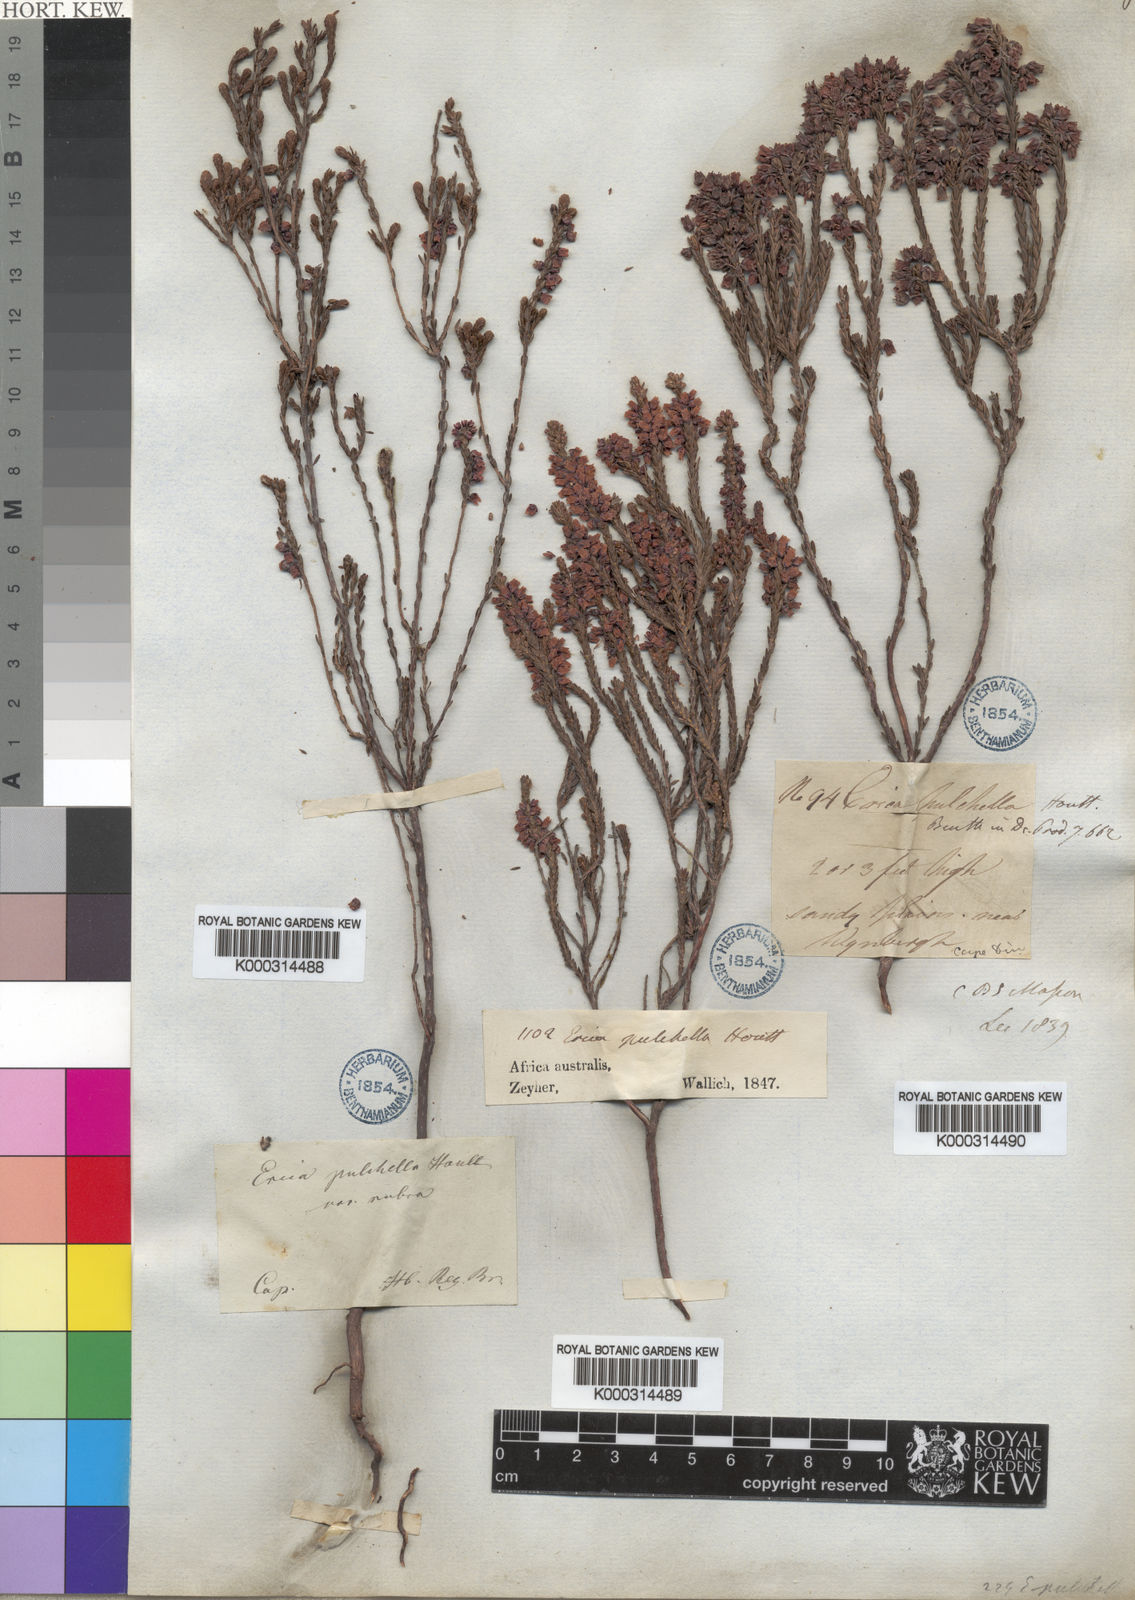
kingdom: Plantae
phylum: Tracheophyta
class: Magnoliopsida
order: Ericales
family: Ericaceae
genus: Erica
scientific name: Erica pulchella
